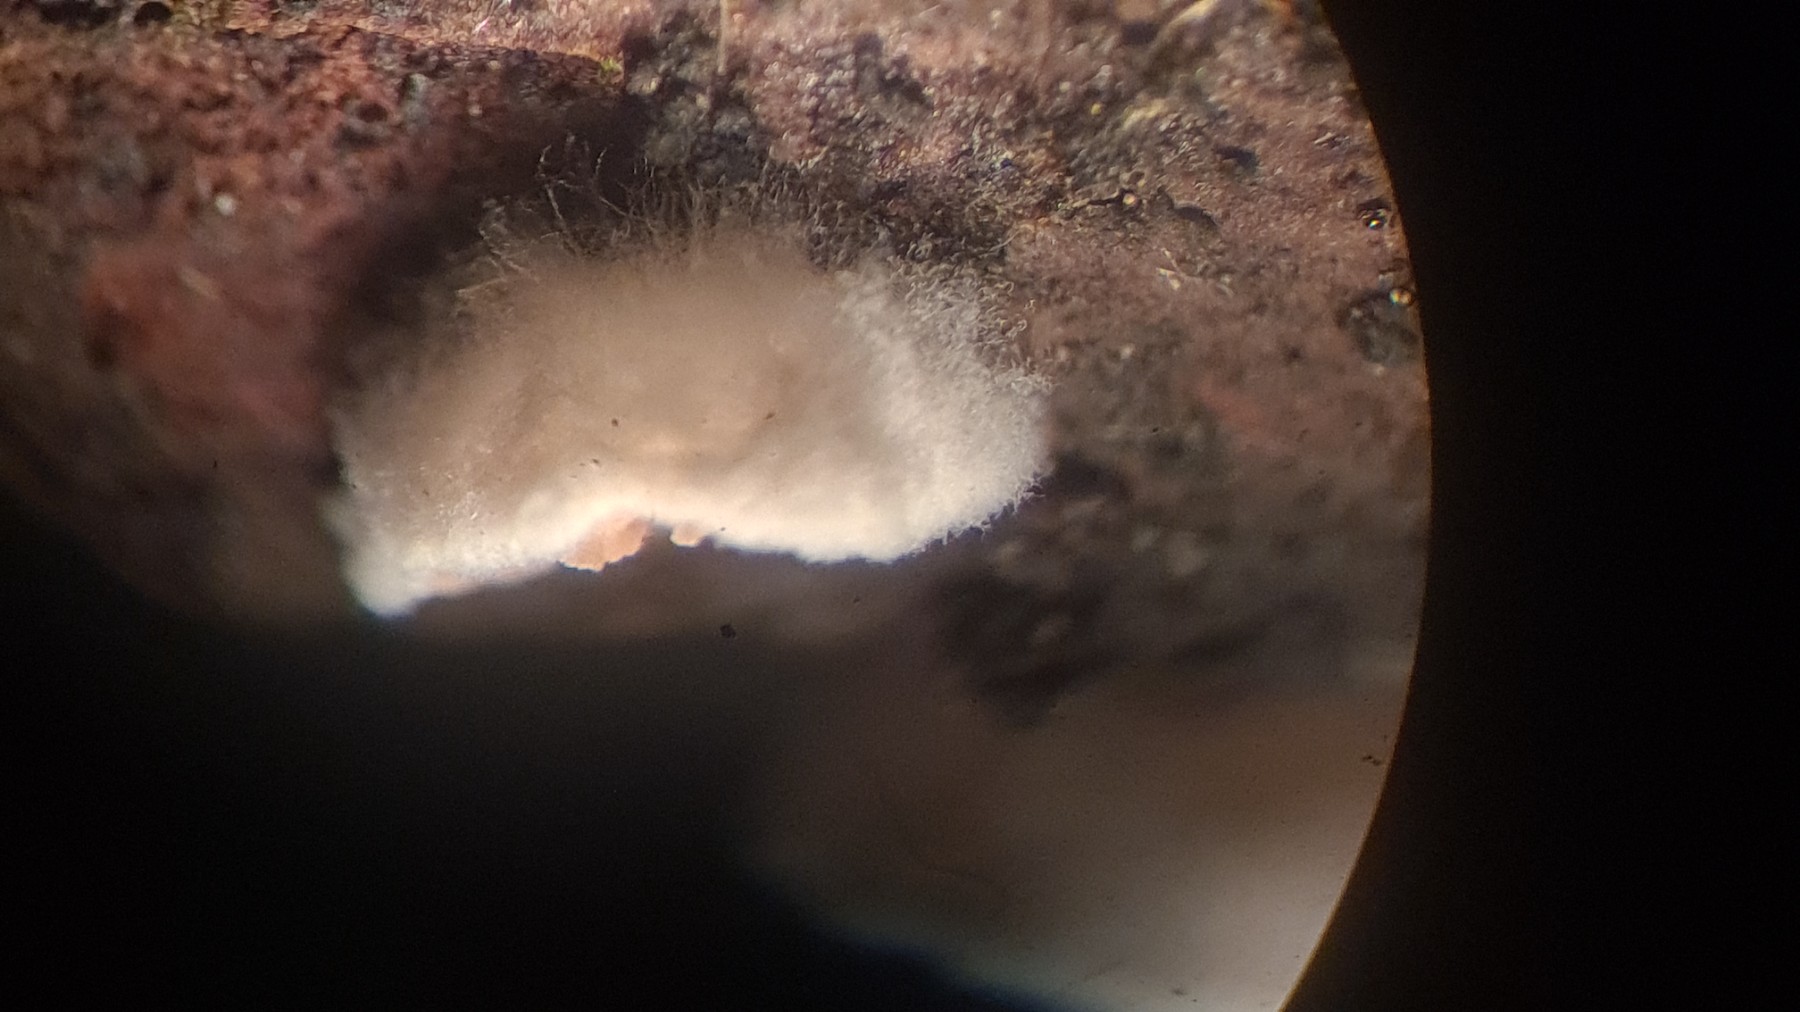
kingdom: Fungi
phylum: Basidiomycota
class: Agaricomycetes
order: Agaricales
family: Entolomataceae
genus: Clitopilus
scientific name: Clitopilus hobsonii
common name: Miller's oysterling
